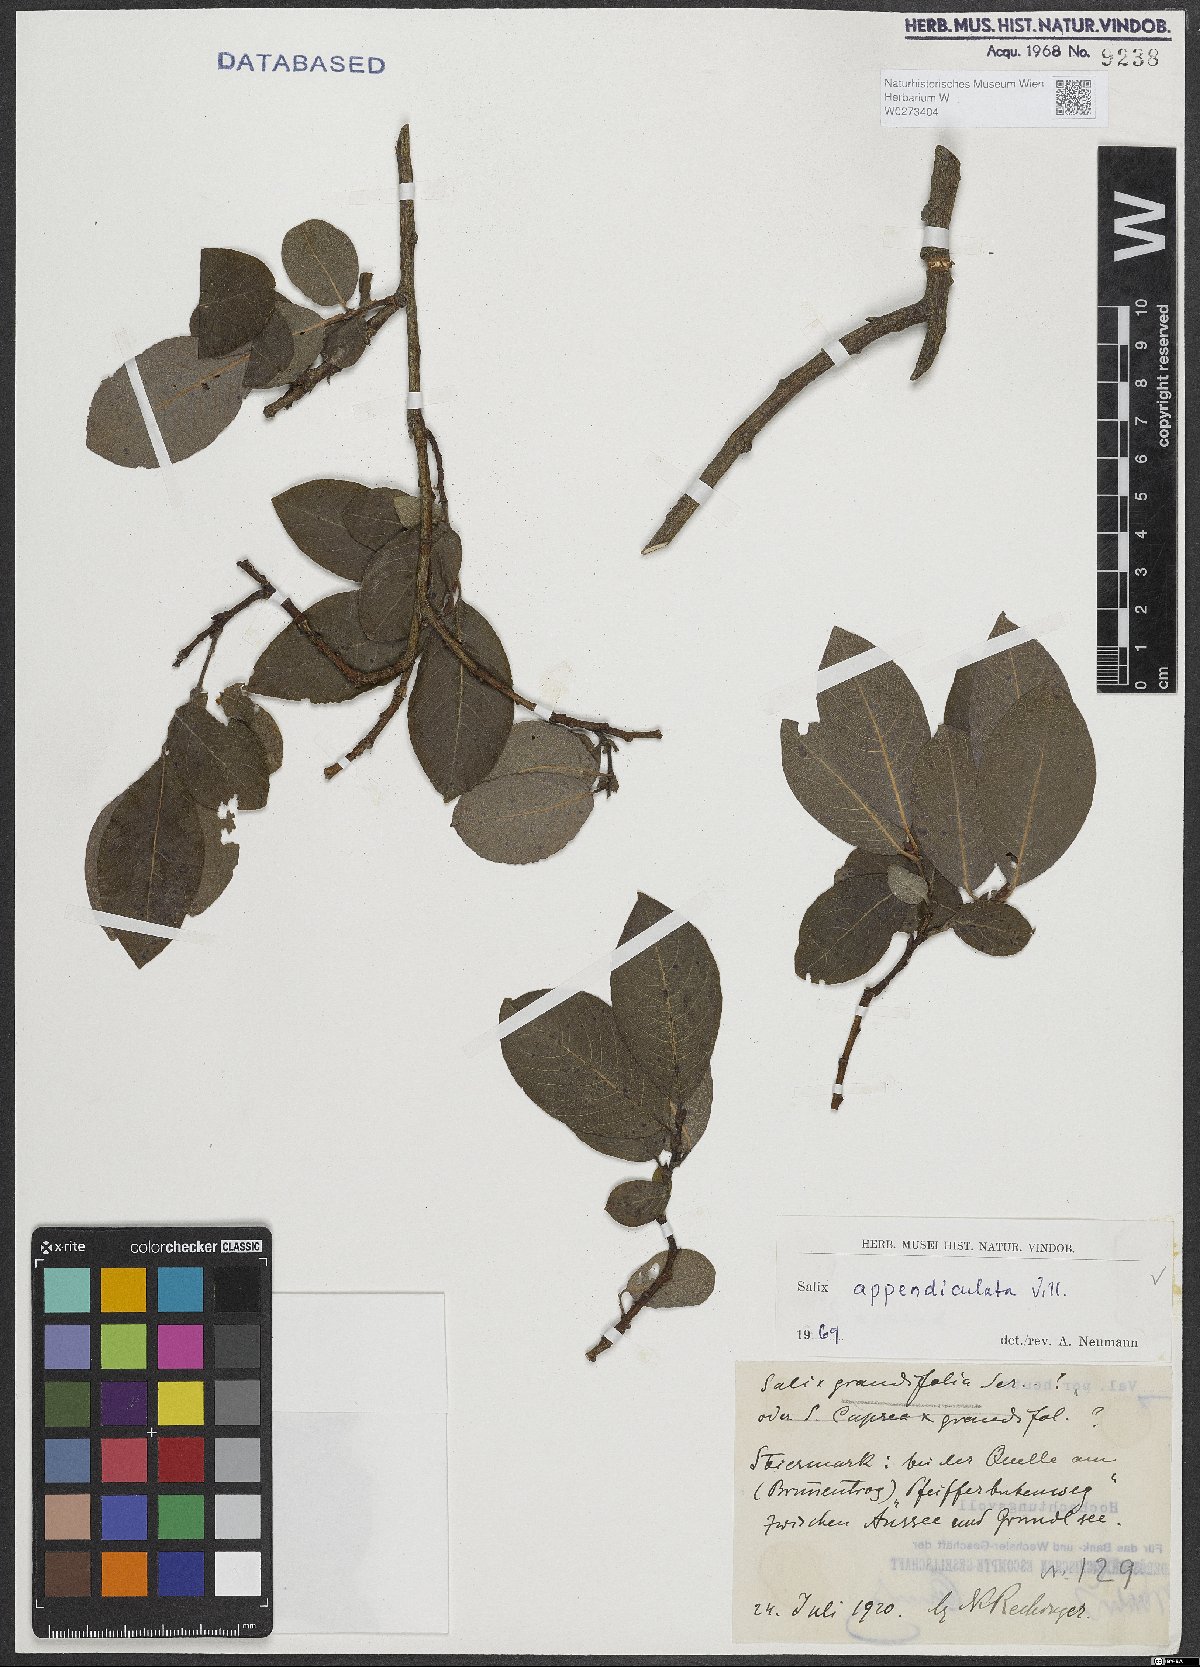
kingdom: Plantae
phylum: Tracheophyta
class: Magnoliopsida
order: Malpighiales
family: Salicaceae
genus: Salix
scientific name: Salix appendiculata
